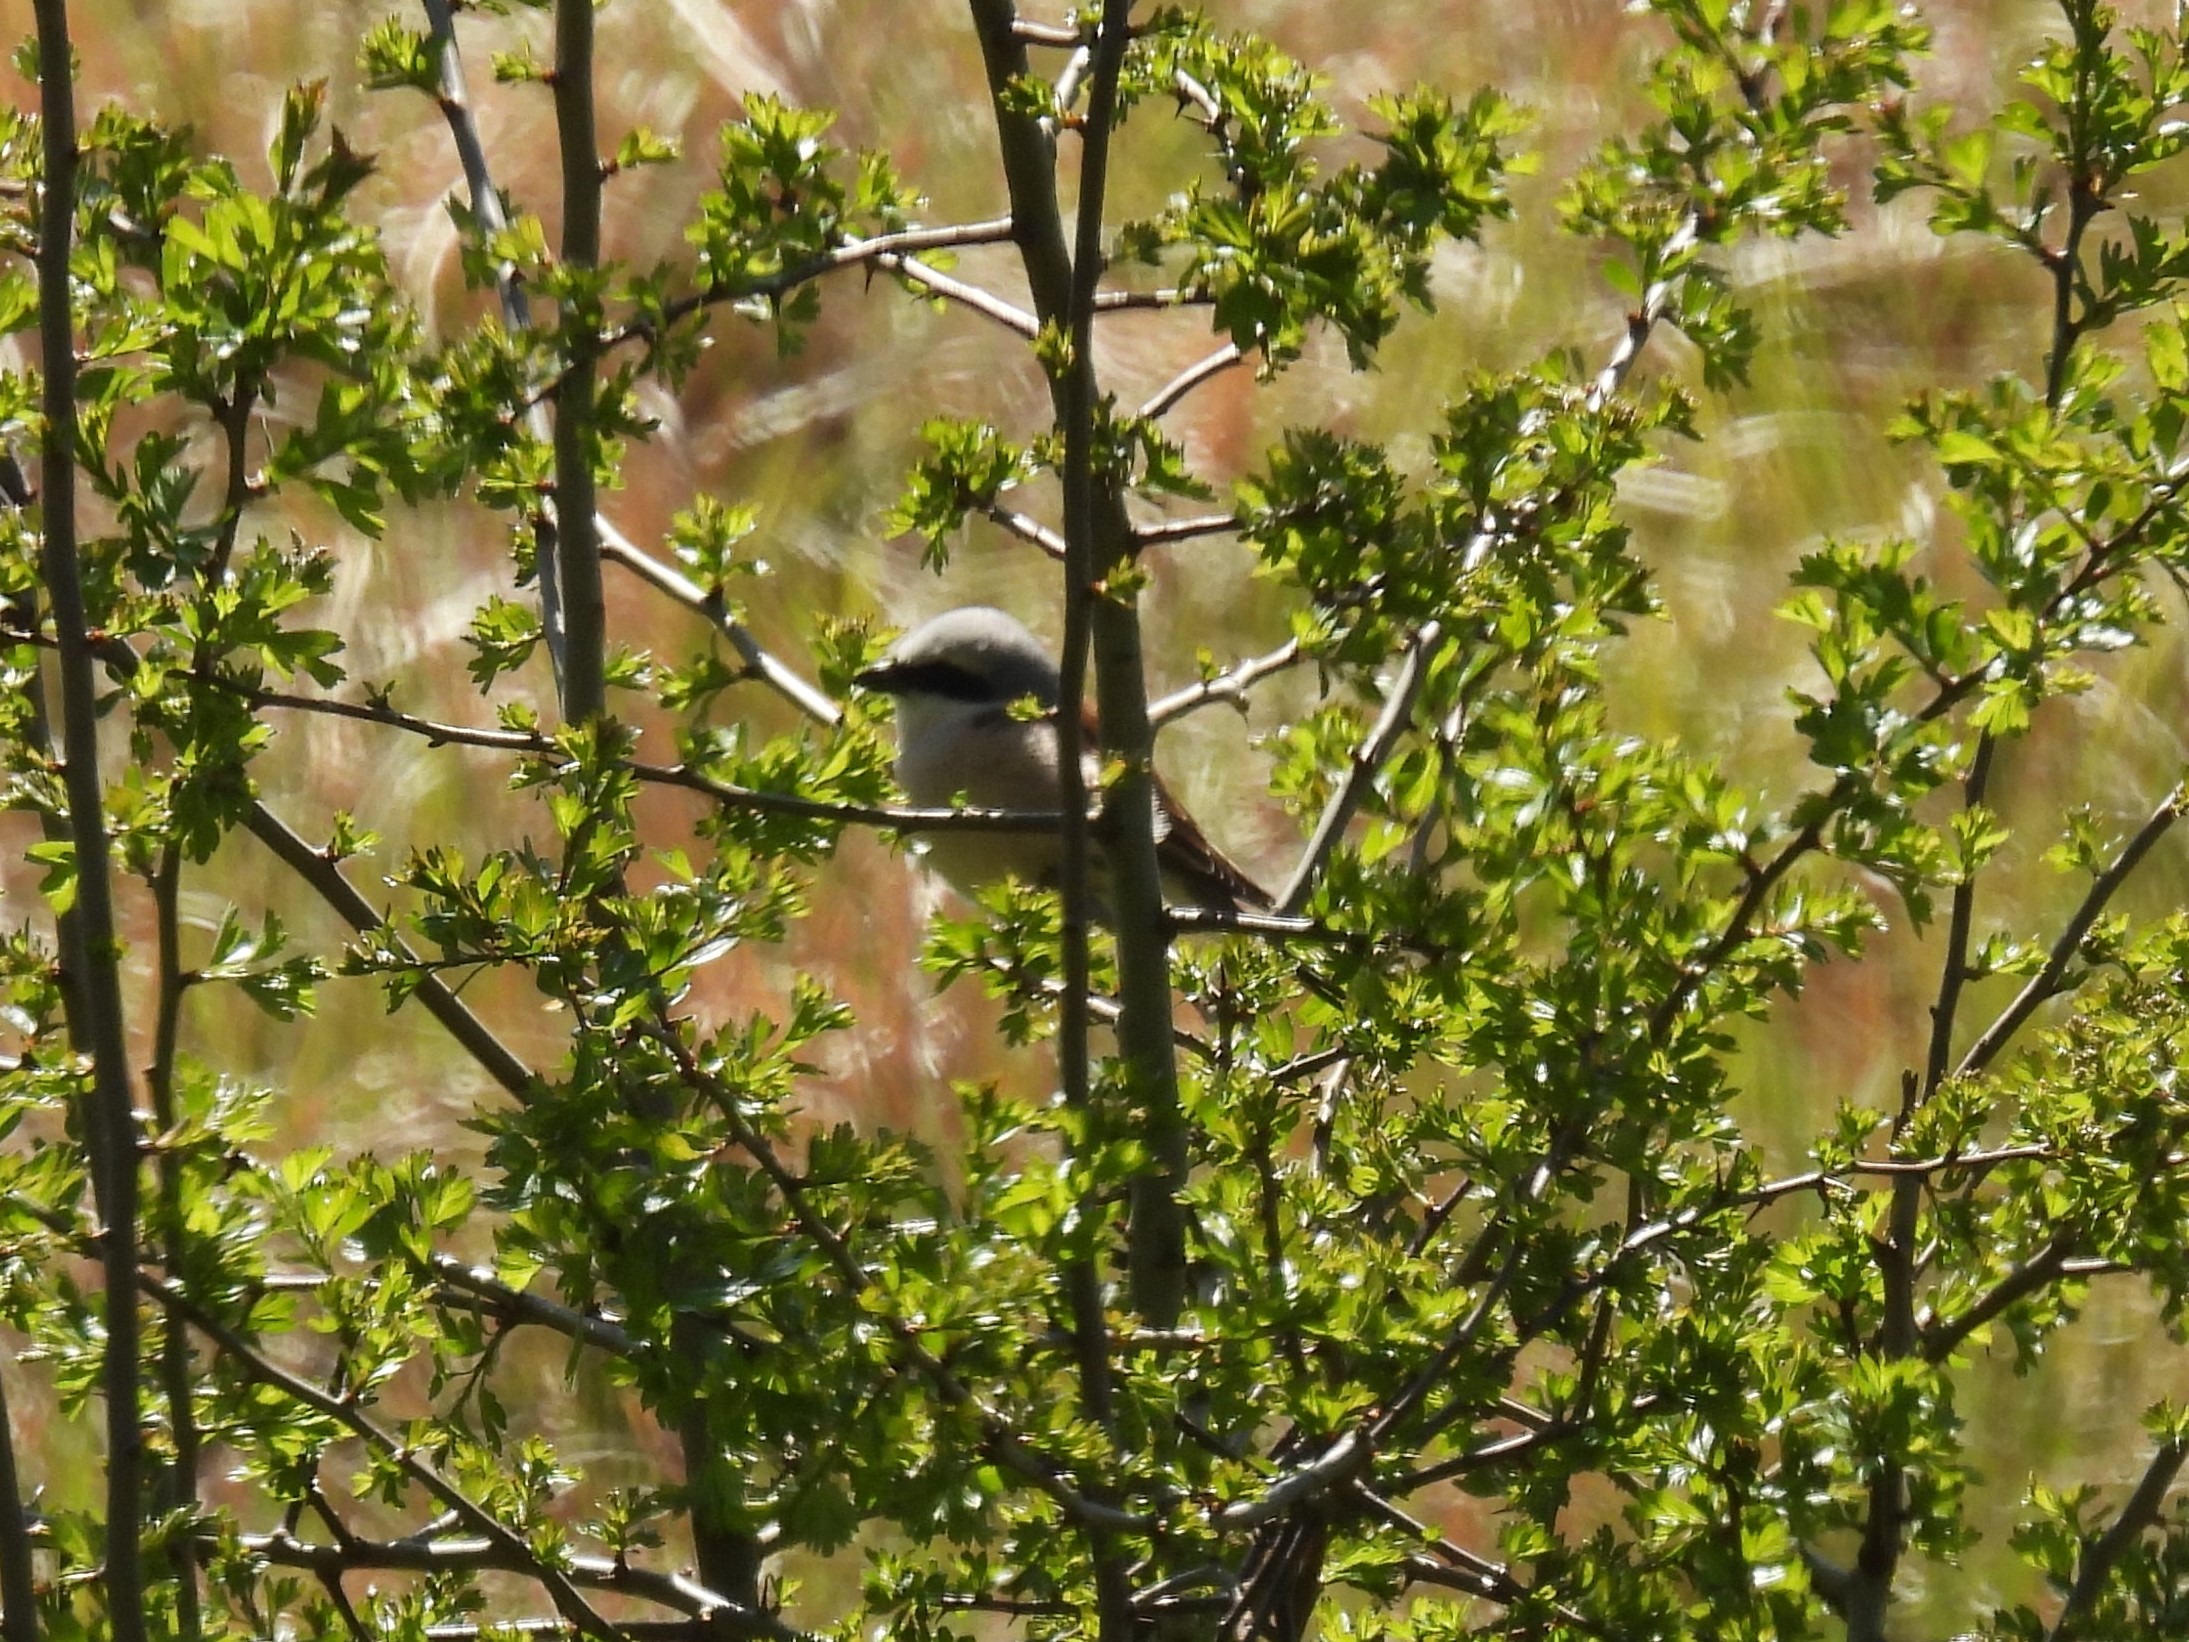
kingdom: Animalia
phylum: Chordata
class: Aves
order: Passeriformes
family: Laniidae
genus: Lanius
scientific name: Lanius collurio
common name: Rødrygget tornskade
